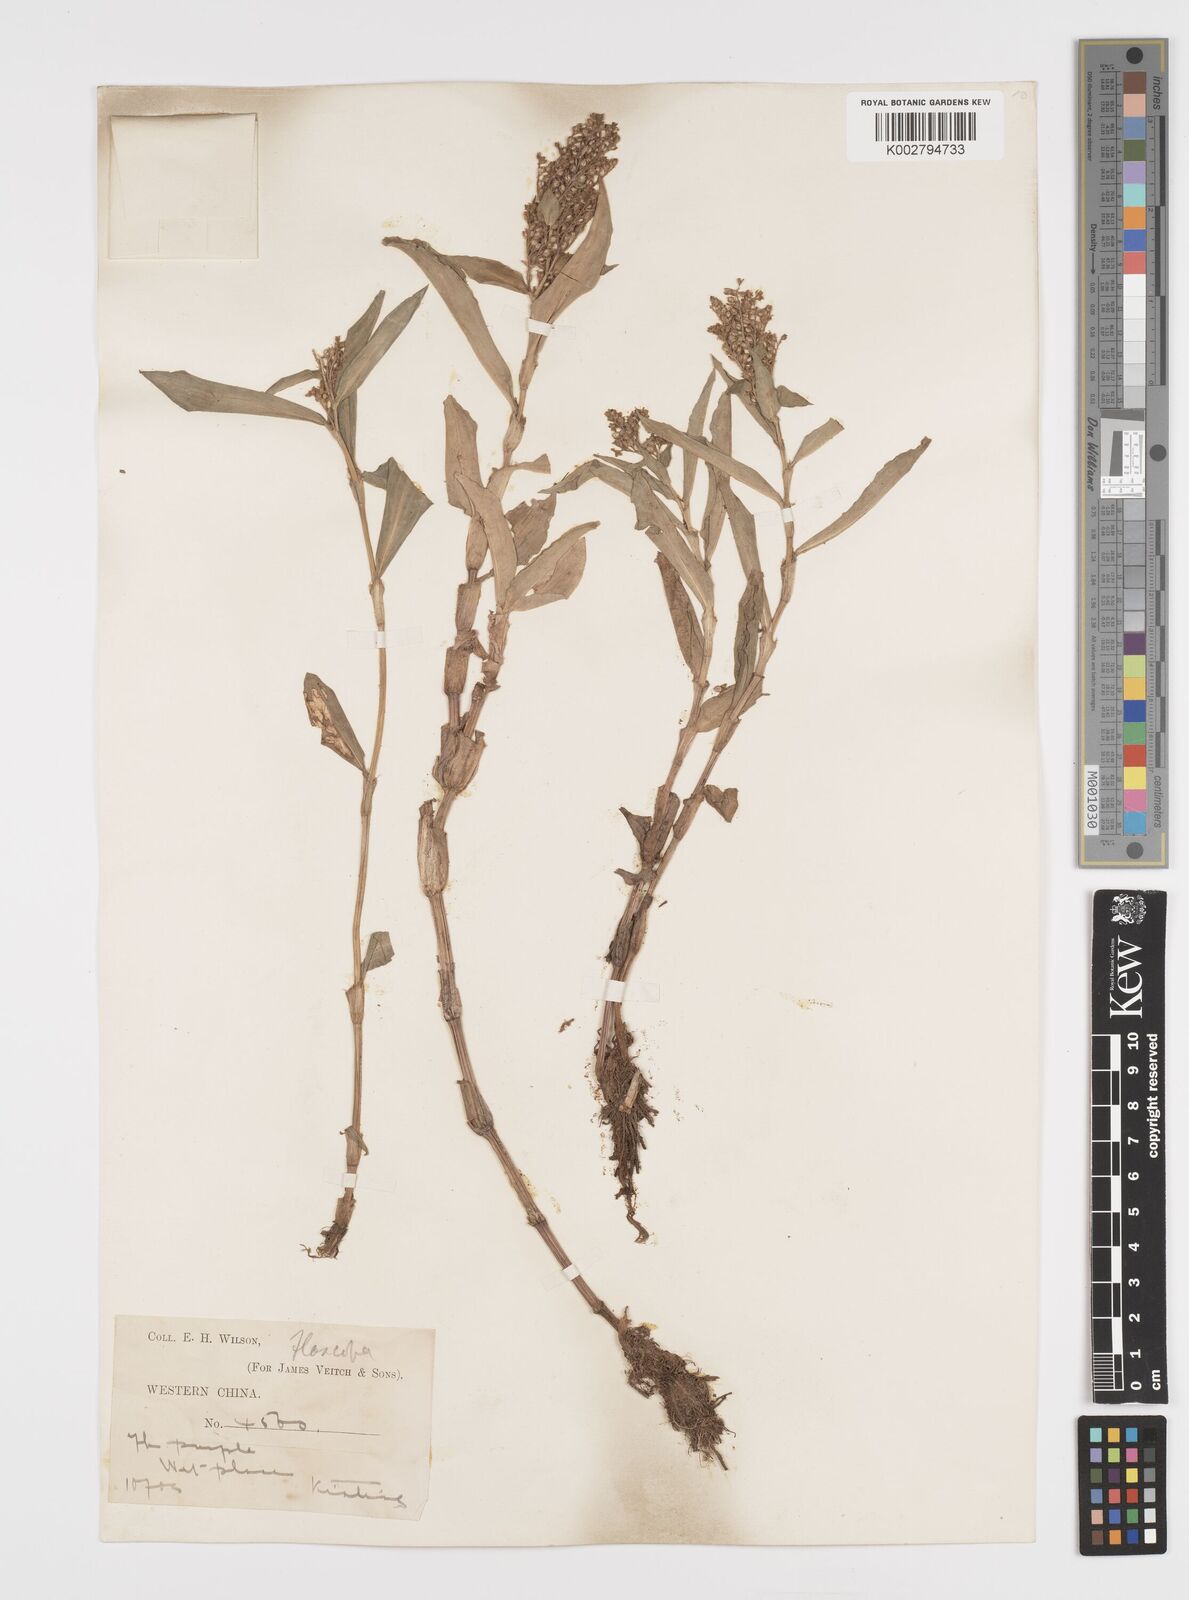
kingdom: Plantae
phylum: Tracheophyta
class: Liliopsida
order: Commelinales
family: Commelinaceae
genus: Floscopa
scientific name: Floscopa scandens
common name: Climbing flower cup
